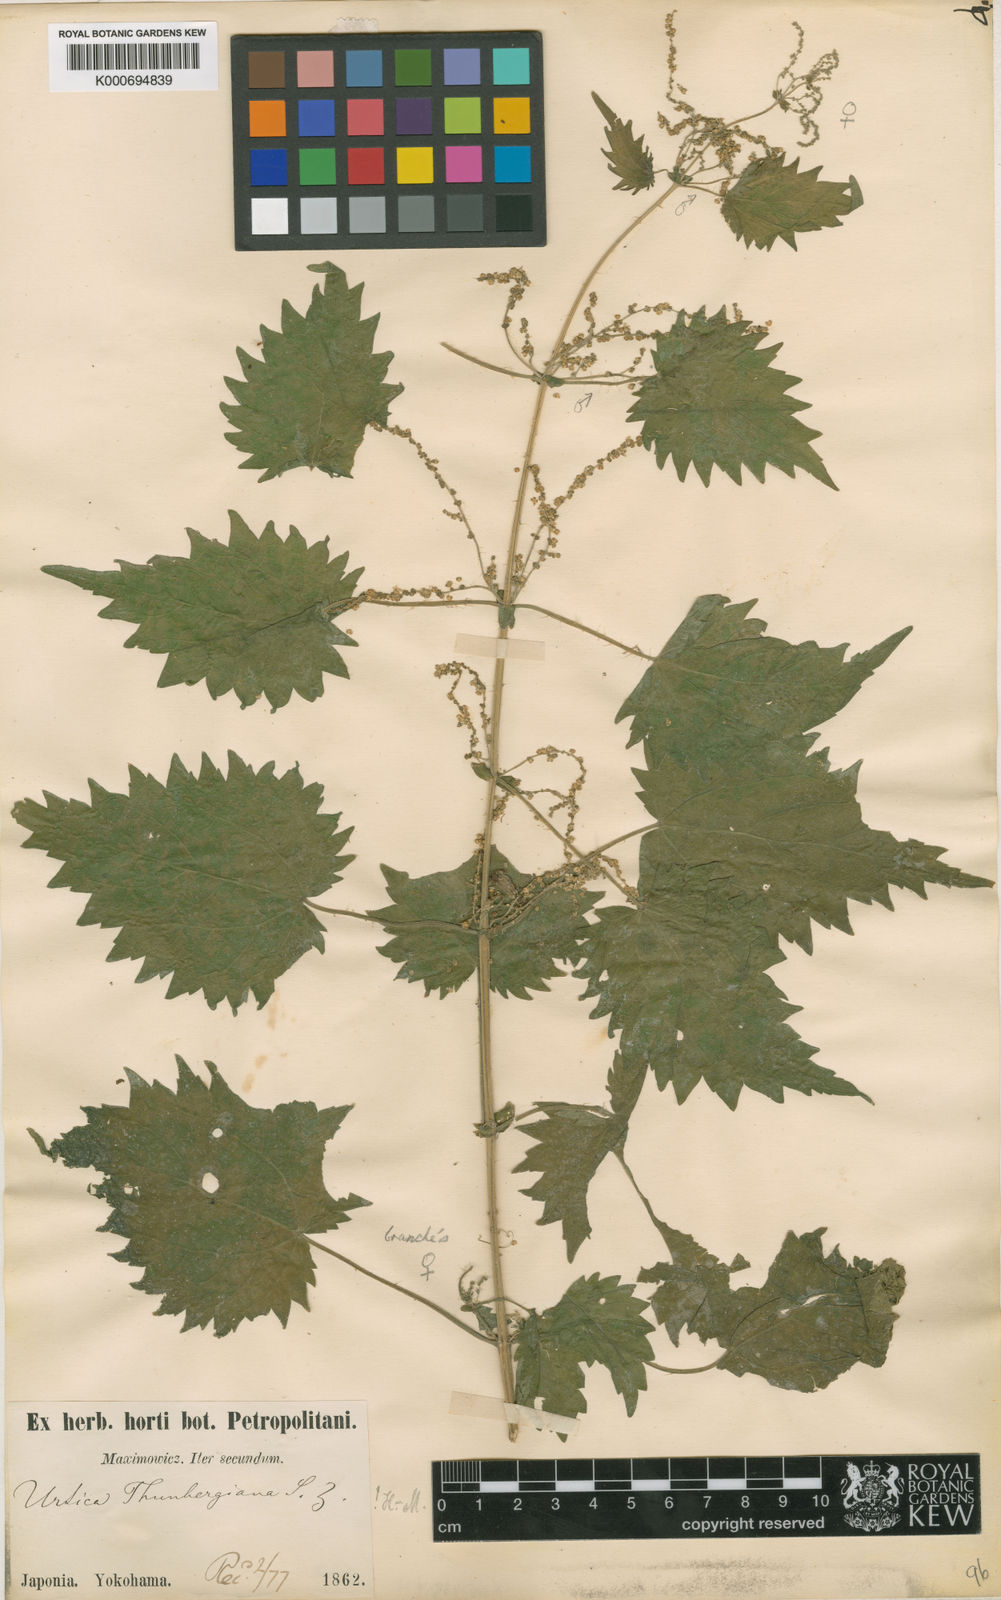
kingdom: Plantae
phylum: Tracheophyta
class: Magnoliopsida
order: Rosales
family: Urticaceae
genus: Urtica
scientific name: Urtica thunbergiana
